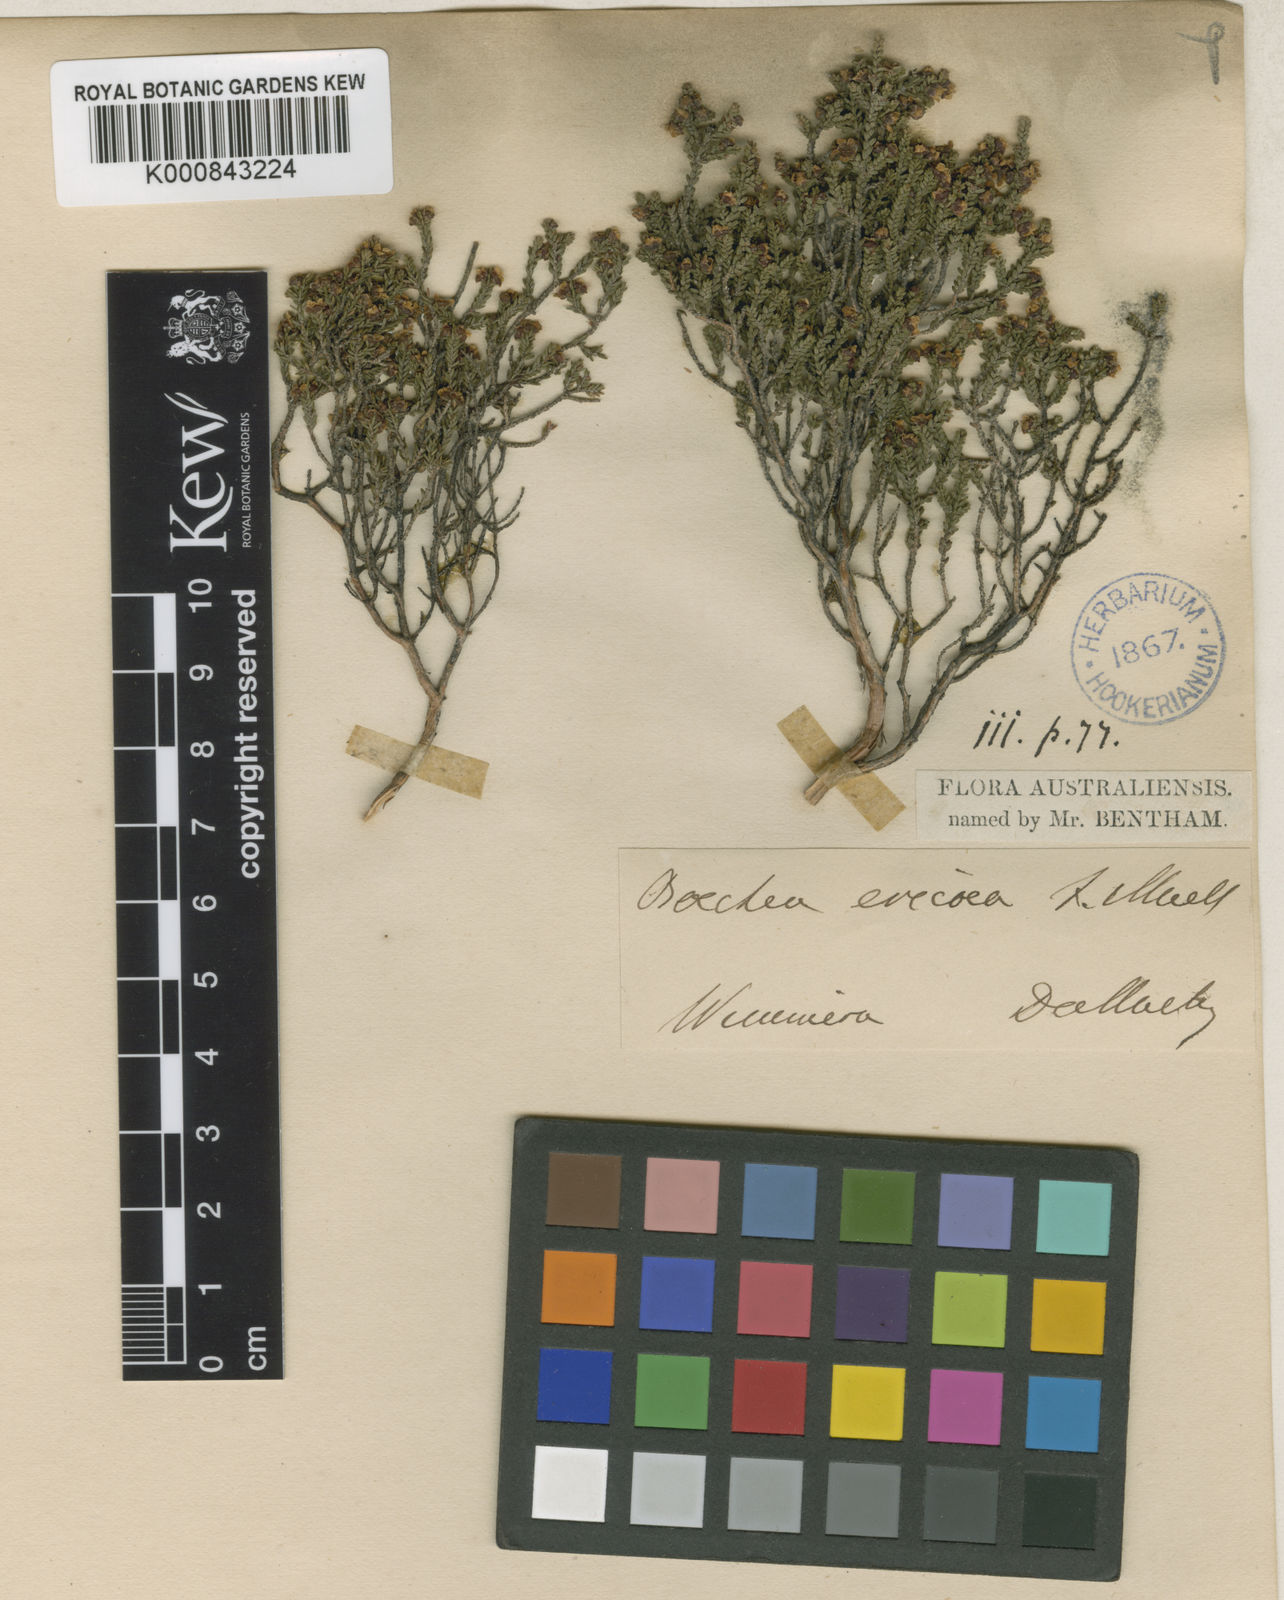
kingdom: Plantae
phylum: Tracheophyta
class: Magnoliopsida
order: Myrtales
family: Myrtaceae
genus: Rinzia
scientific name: Rinzia ericaea
